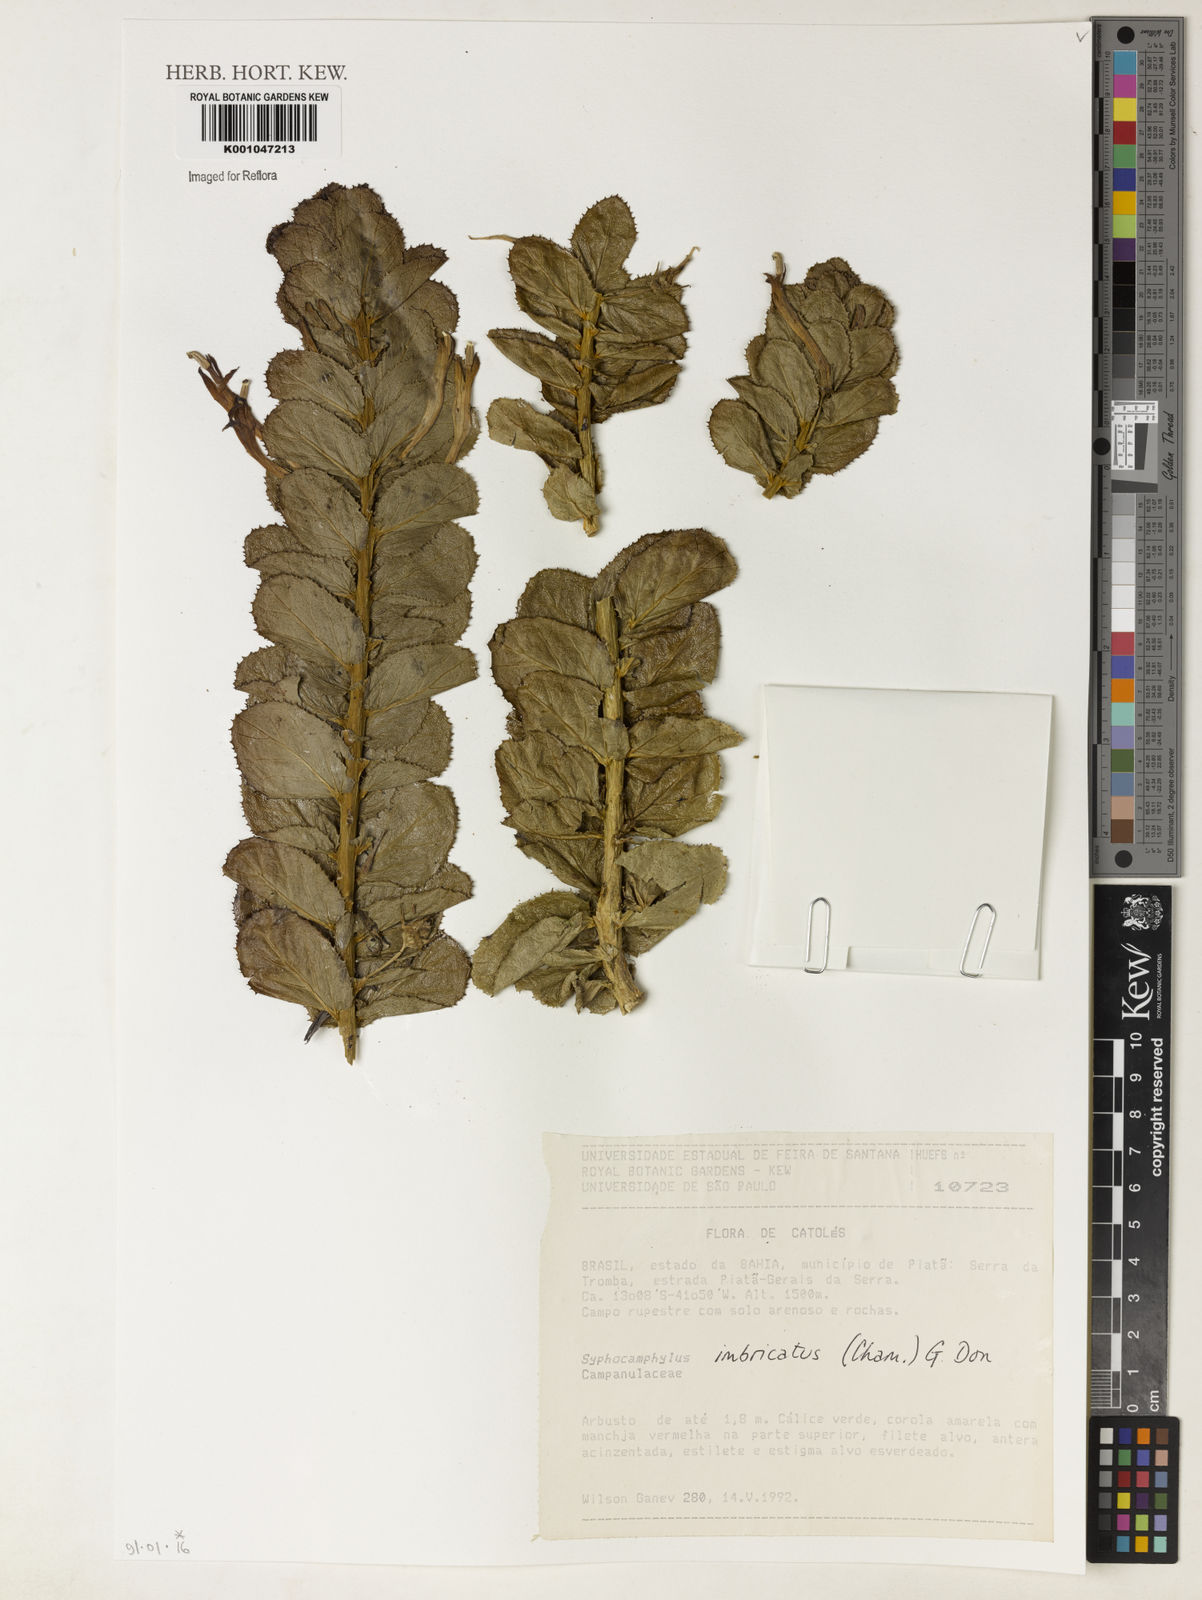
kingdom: Plantae
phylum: Tracheophyta
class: Magnoliopsida
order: Asterales
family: Campanulaceae
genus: Siphocampylus
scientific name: Siphocampylus imbricatus
